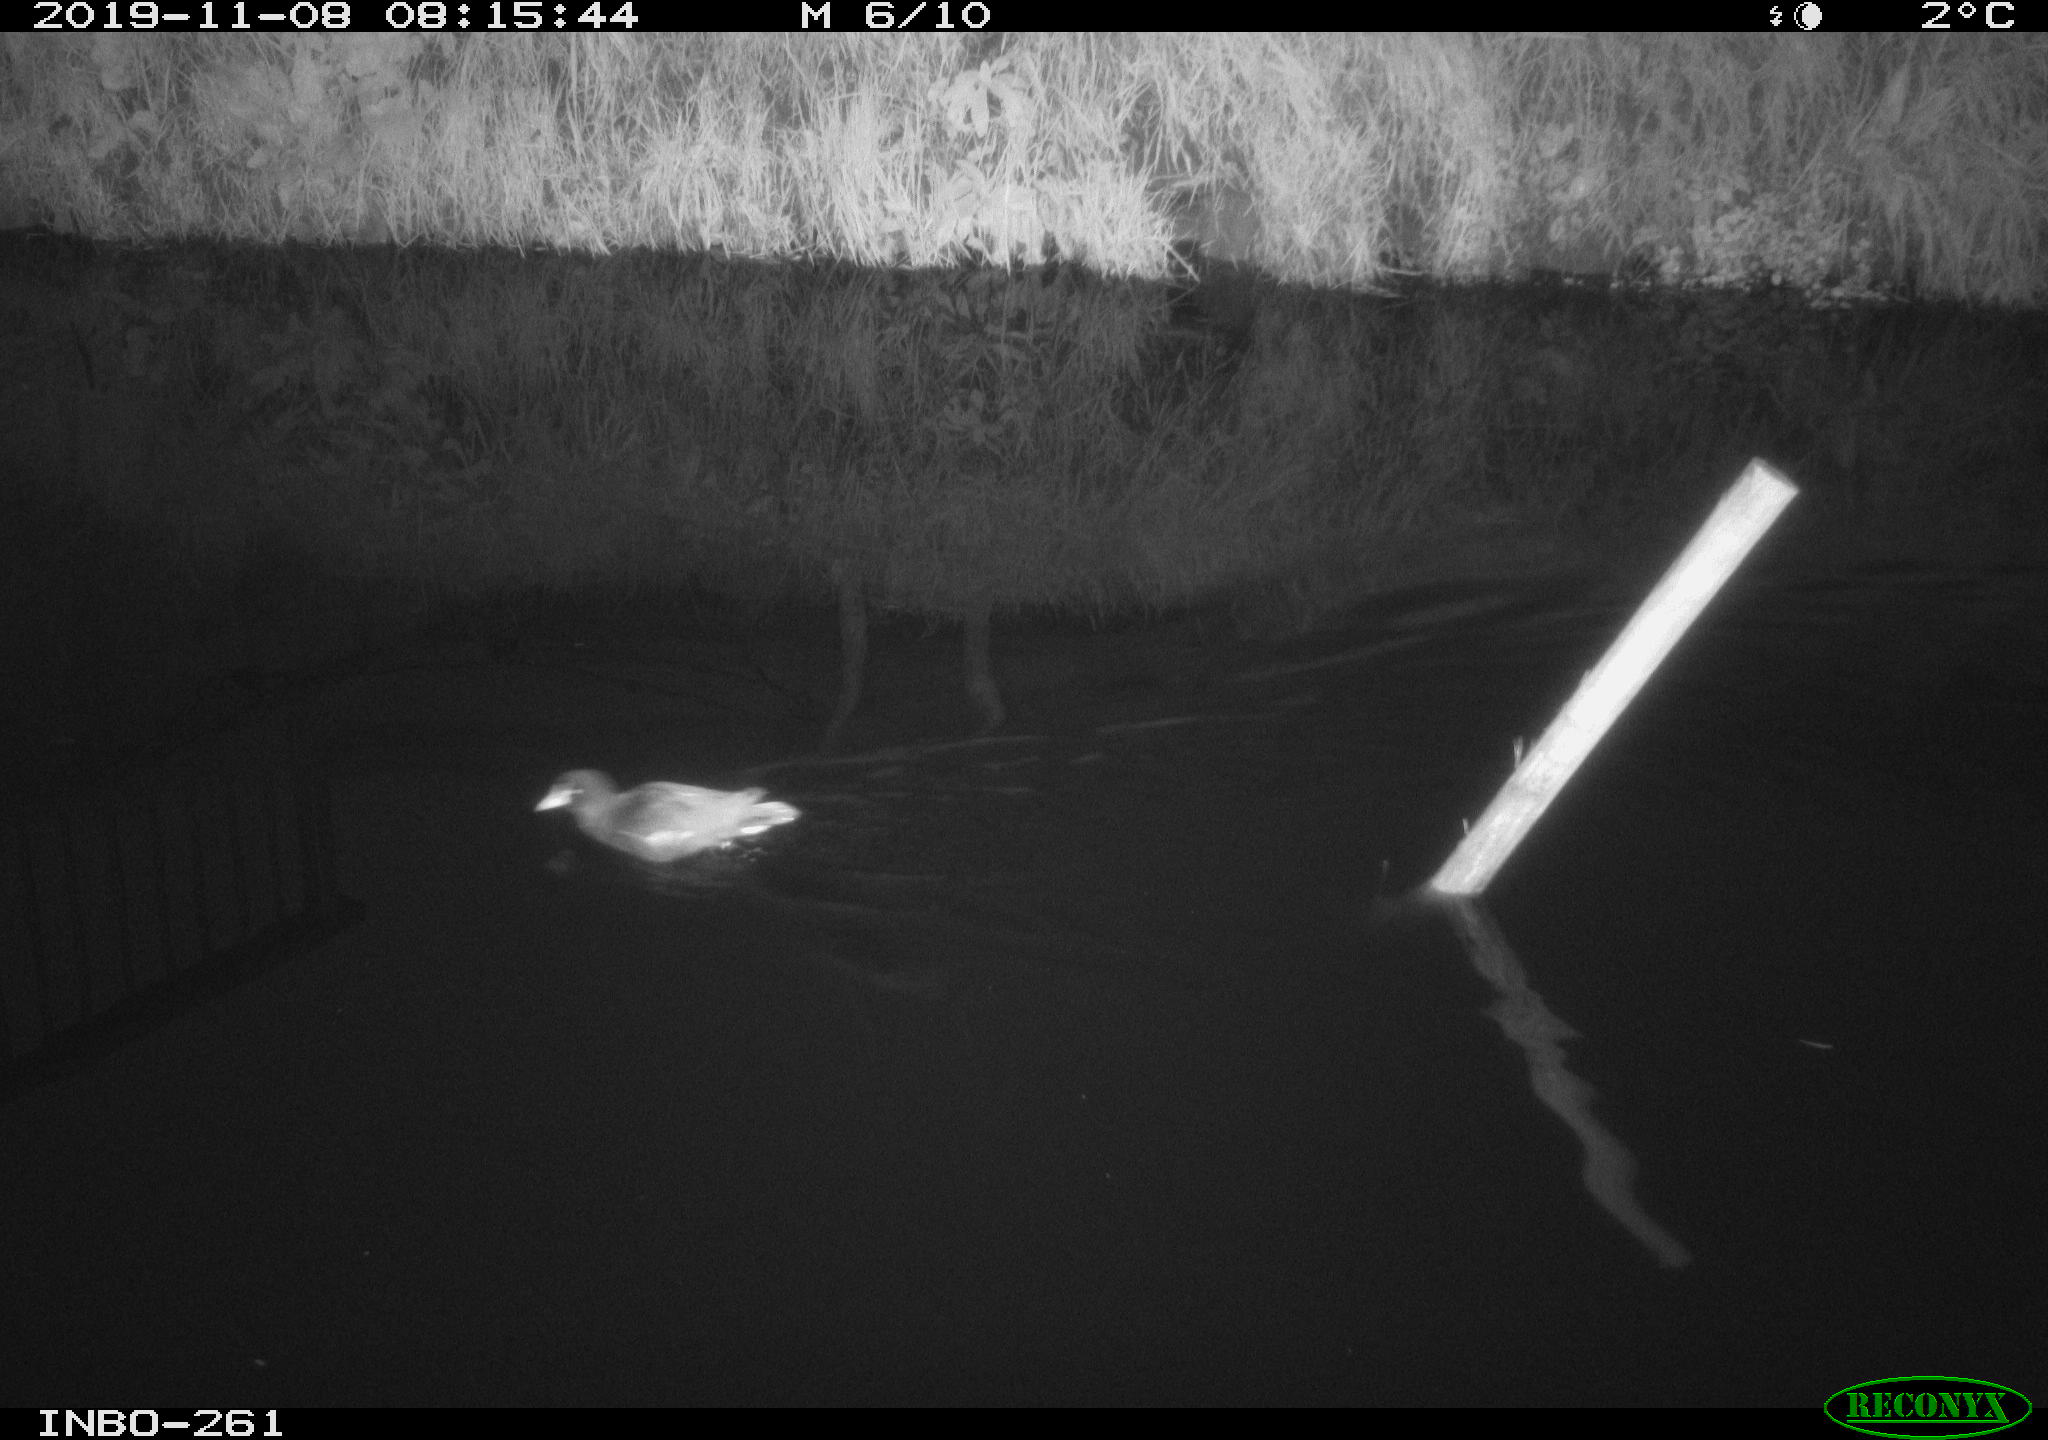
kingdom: Animalia
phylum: Chordata
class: Aves
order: Gruiformes
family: Rallidae
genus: Gallinula
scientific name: Gallinula chloropus
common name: Common moorhen
